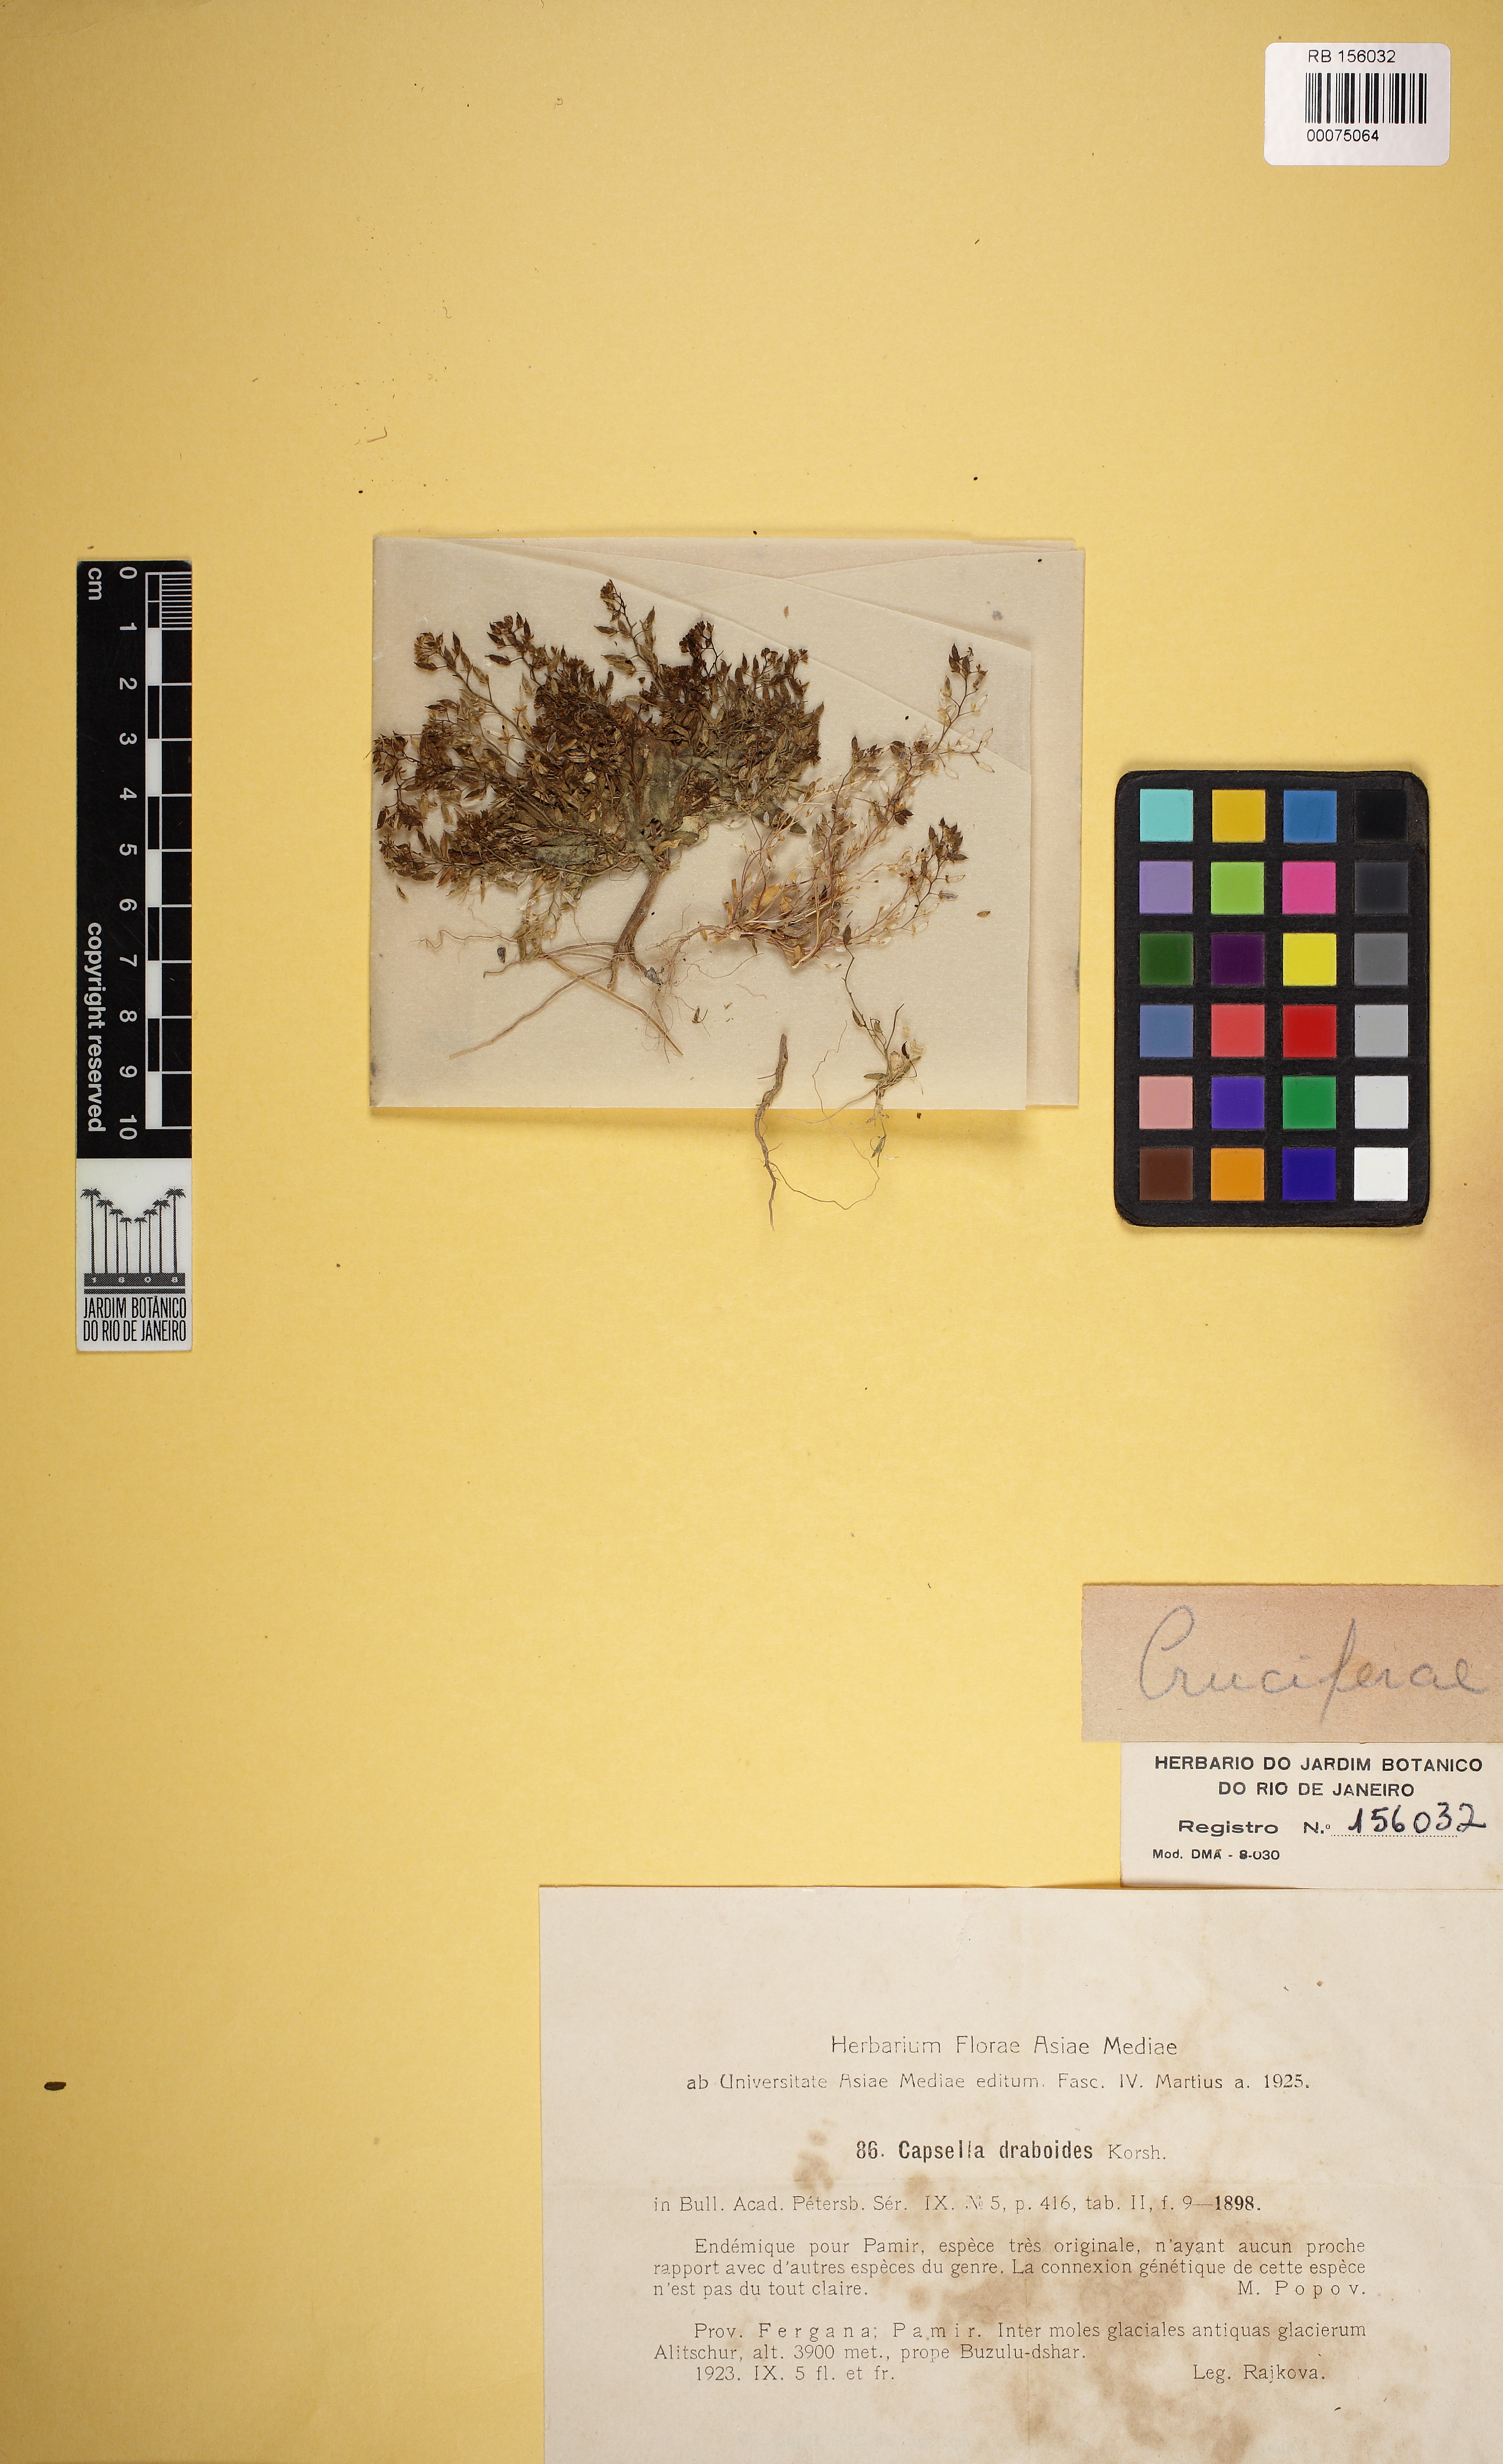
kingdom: Plantae
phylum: Tracheophyta
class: Magnoliopsida
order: Brassicales
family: Brassicaceae
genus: Calymmatium
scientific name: Calymmatium draboides
